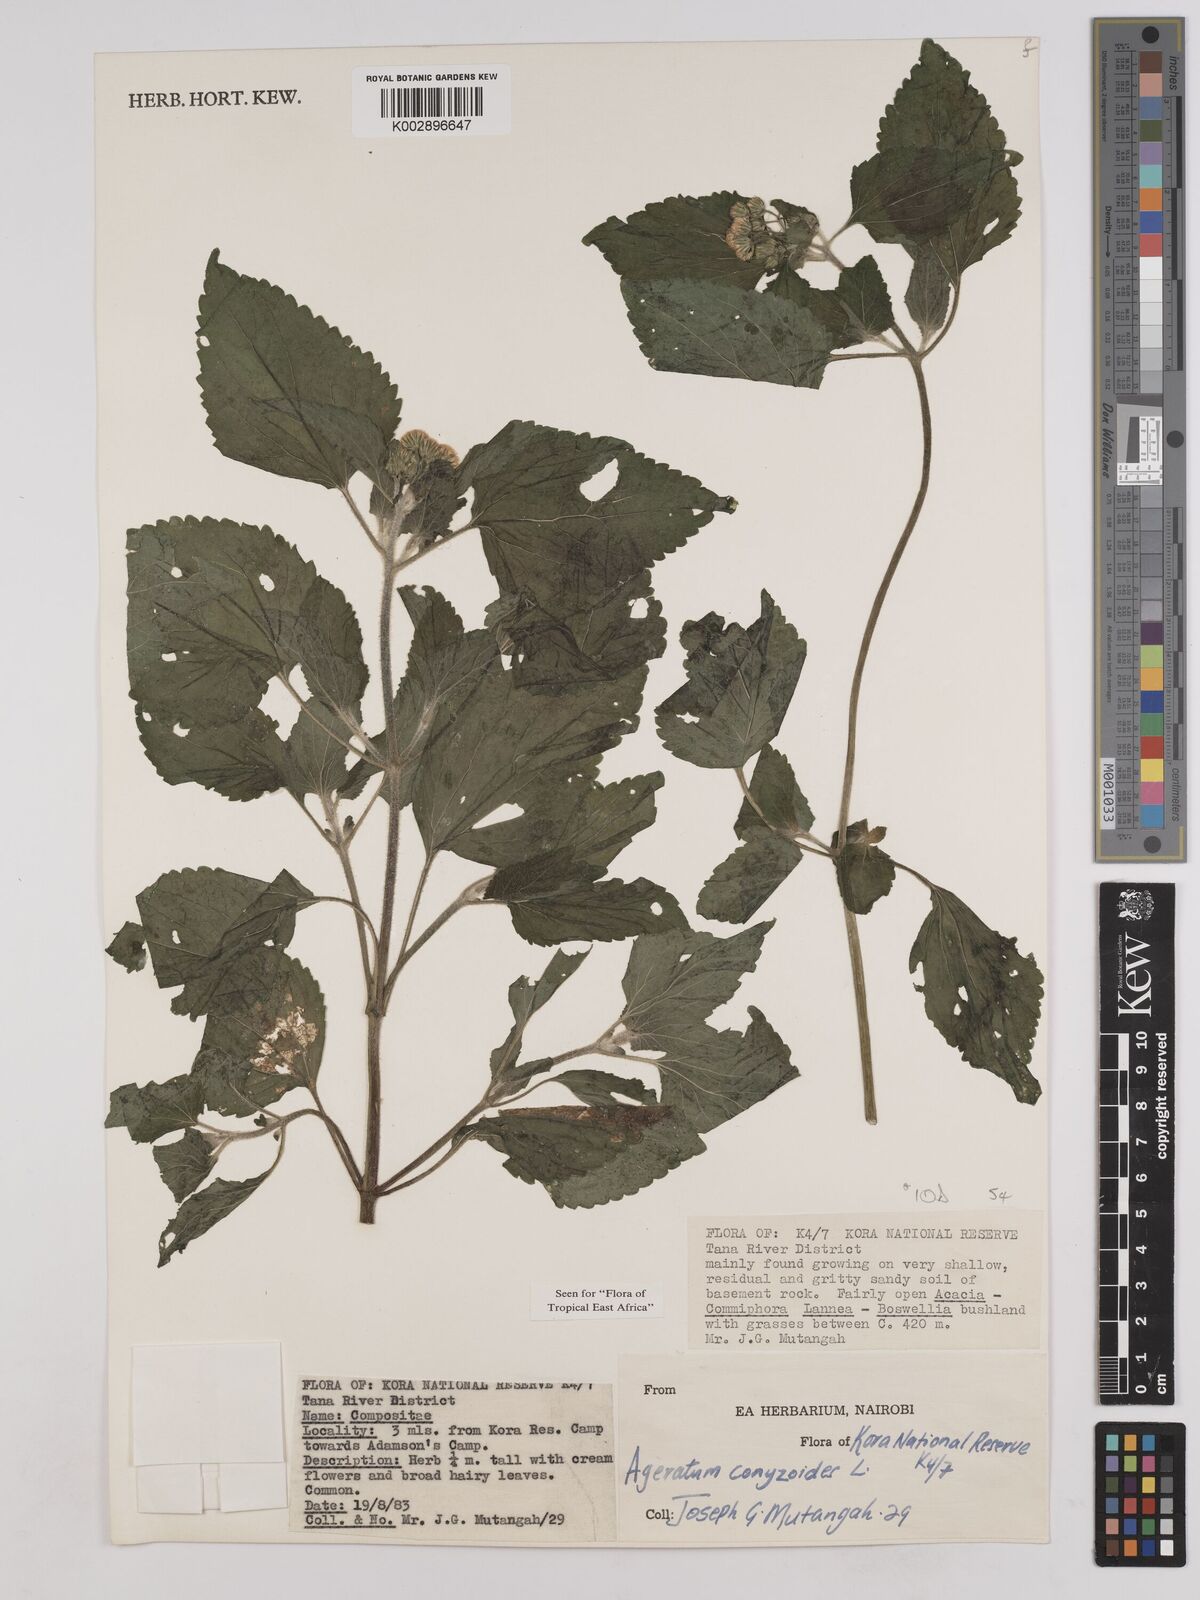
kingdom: Plantae
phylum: Tracheophyta
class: Magnoliopsida
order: Asterales
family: Asteraceae
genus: Ageratum
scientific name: Ageratum conyzoides
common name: Tropical whiteweed
